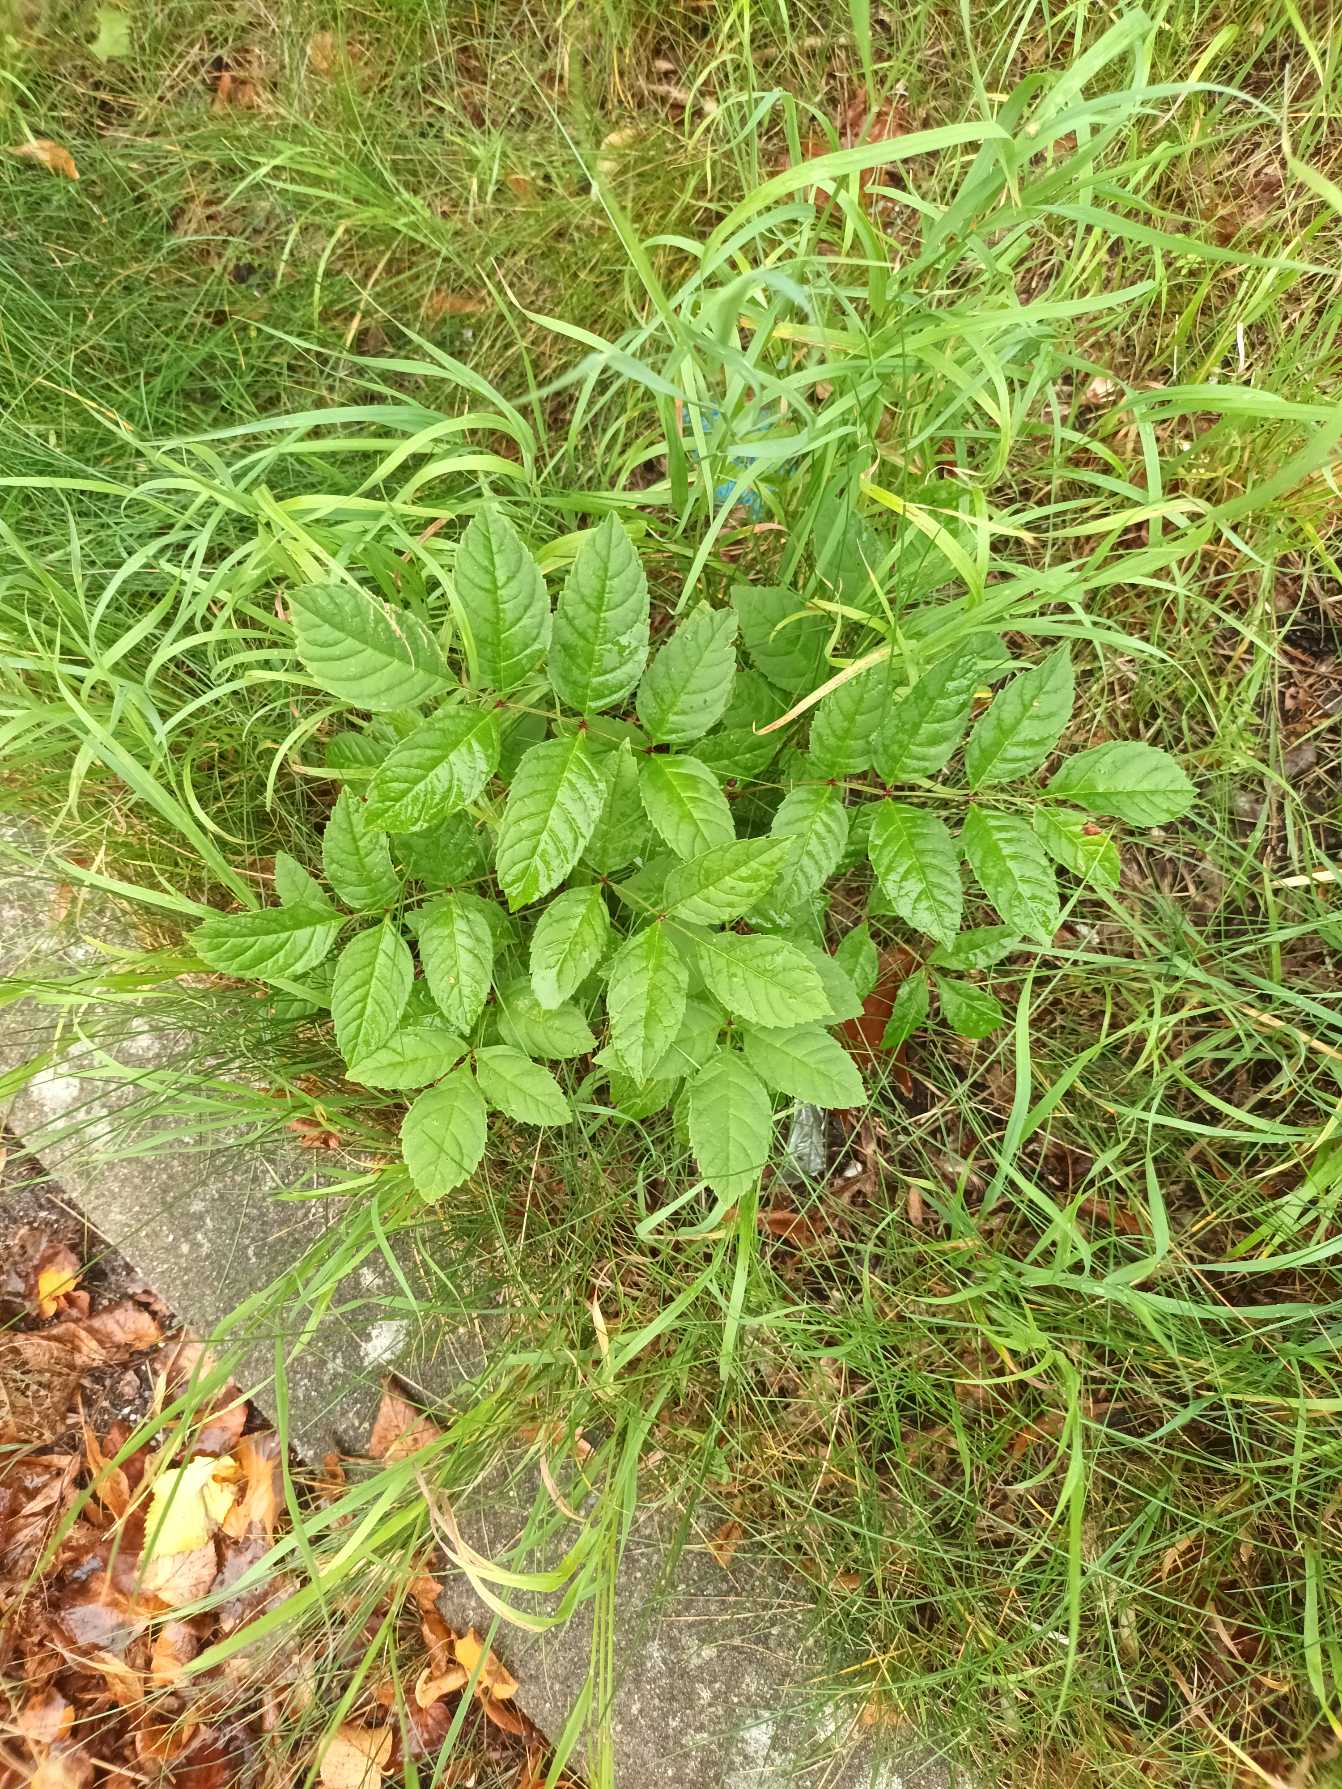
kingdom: Plantae
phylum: Tracheophyta
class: Magnoliopsida
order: Lamiales
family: Oleaceae
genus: Fraxinus
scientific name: Fraxinus excelsior
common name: Ask
